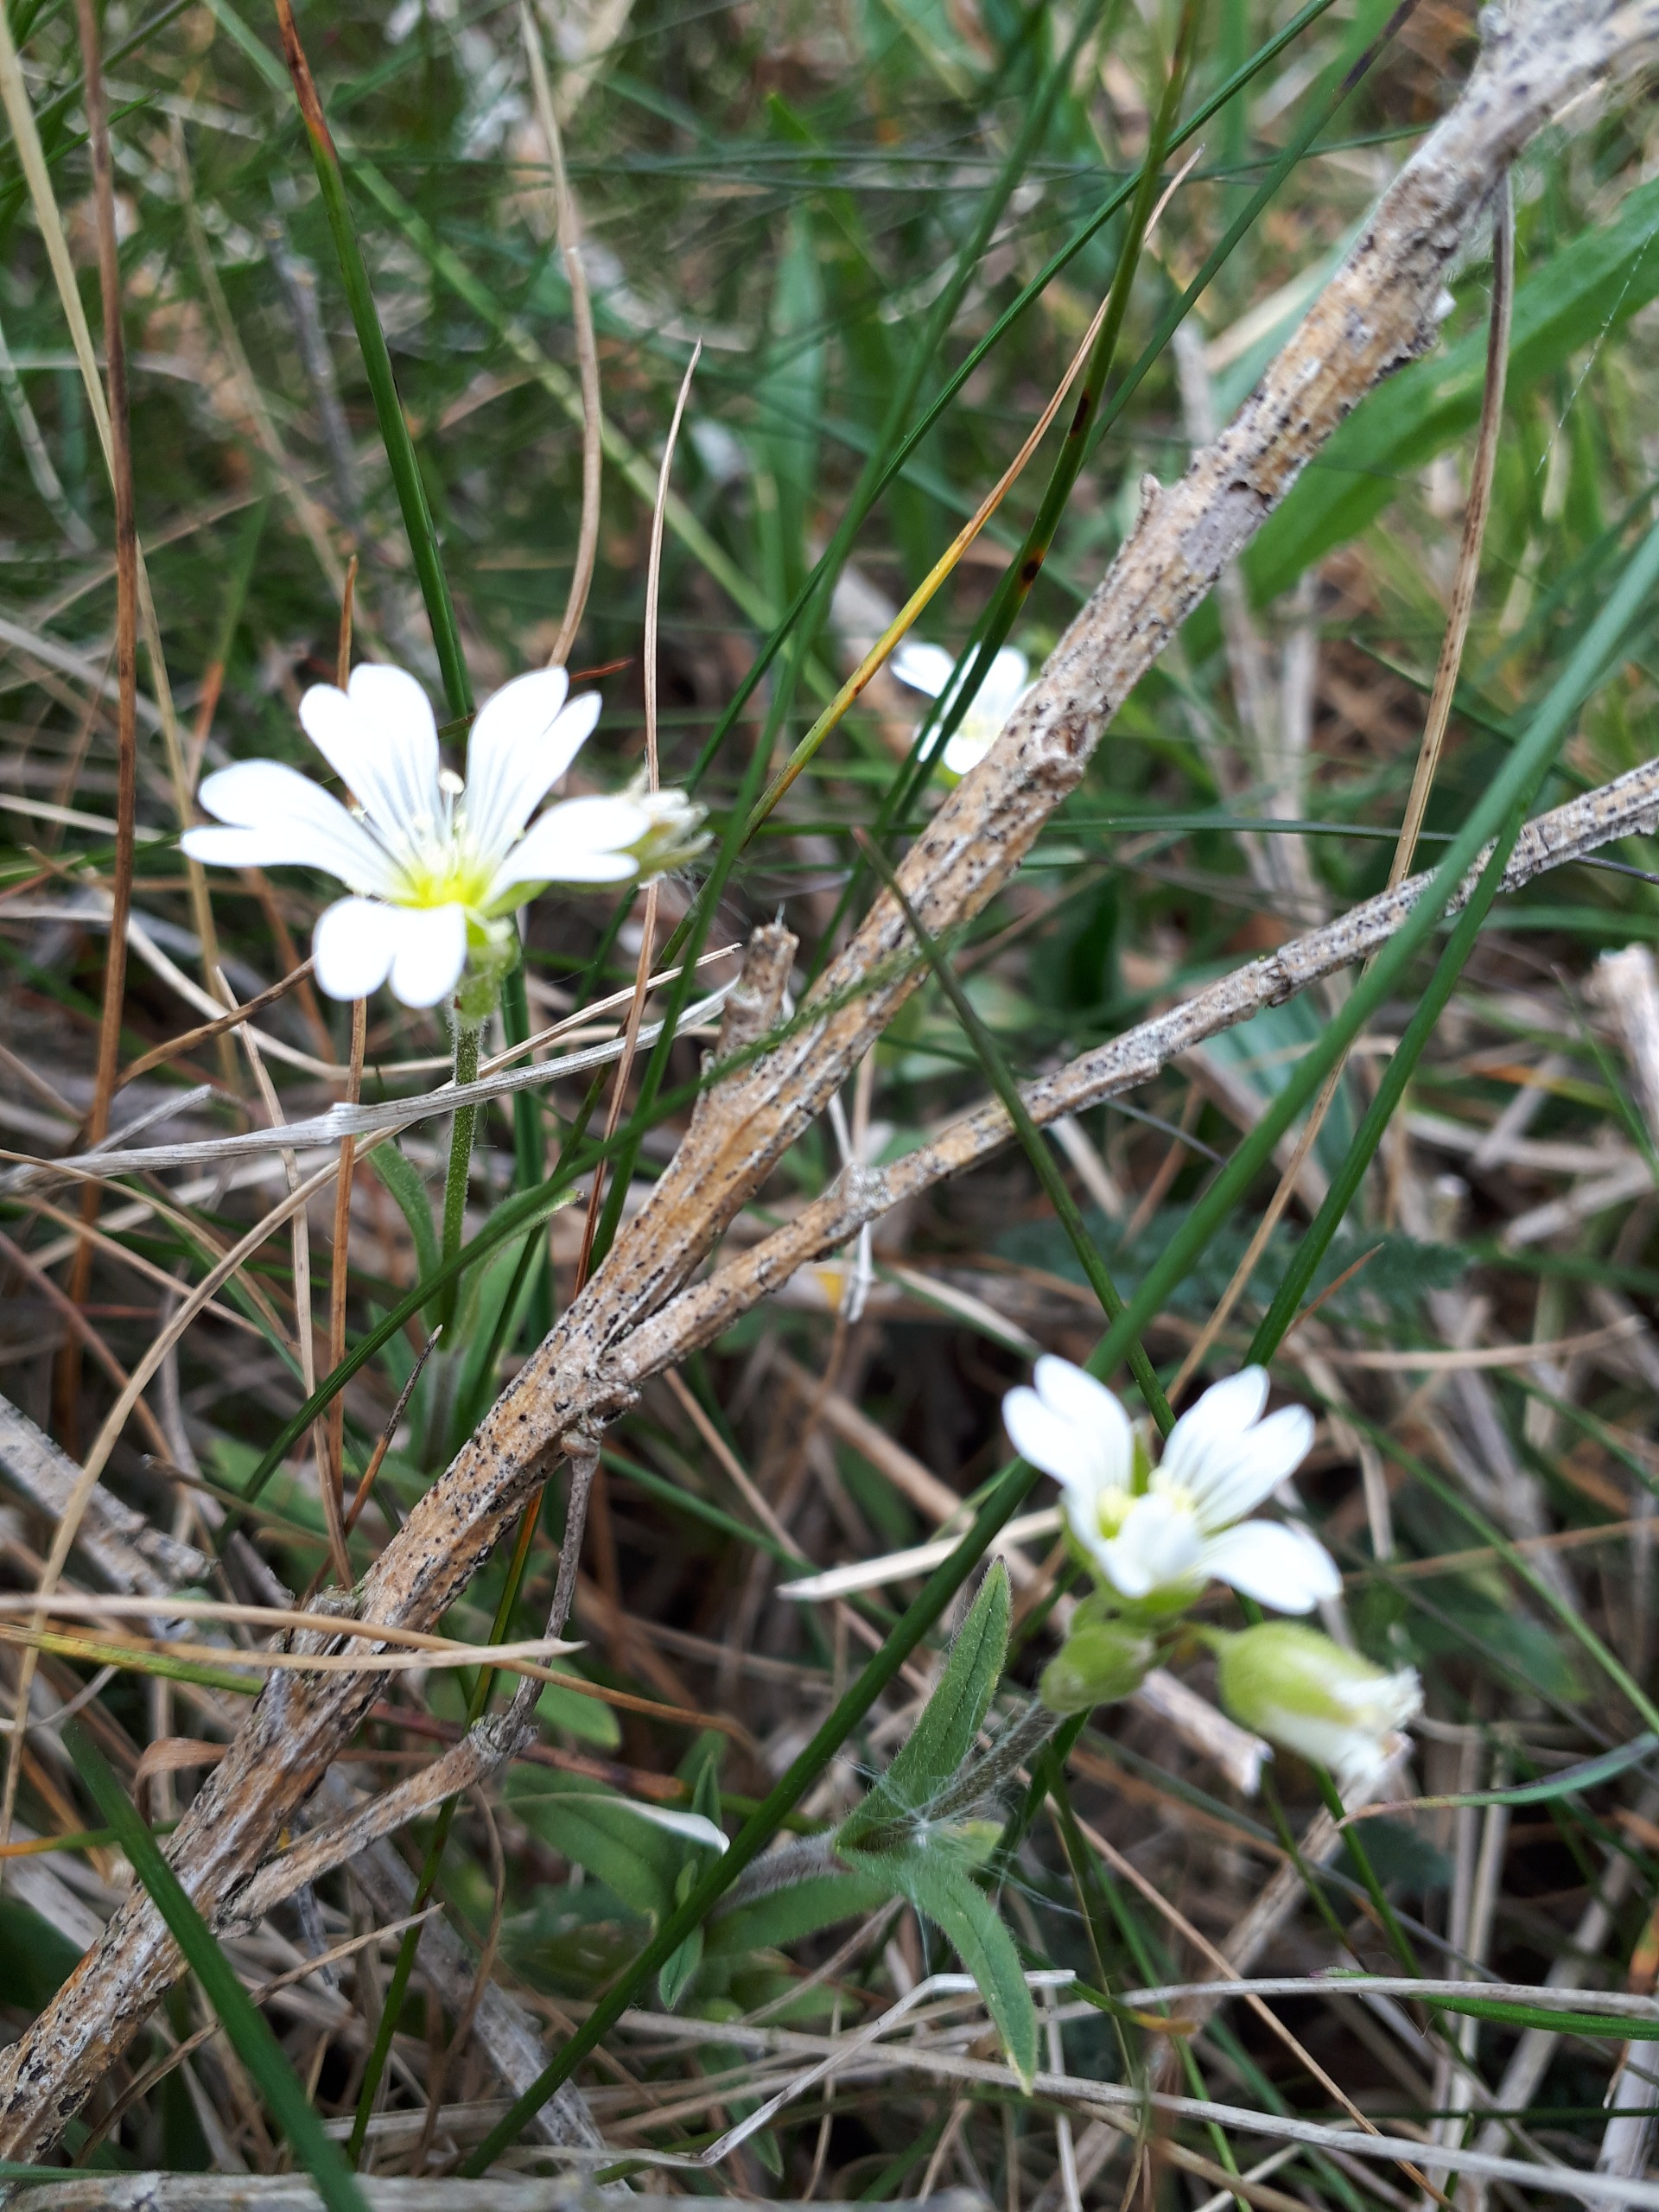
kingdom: Plantae
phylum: Tracheophyta
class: Magnoliopsida
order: Caryophyllales
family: Caryophyllaceae
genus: Cerastium
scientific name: Cerastium arvense
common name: Storblomstret hønsetarm
